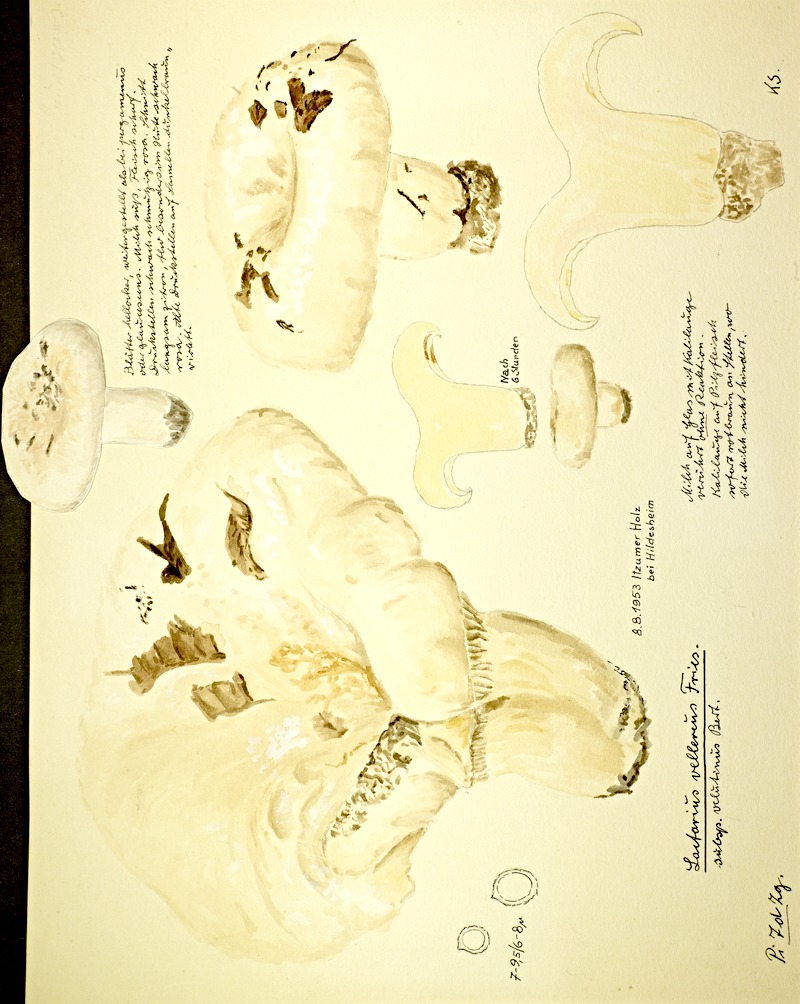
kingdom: Fungi
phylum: Basidiomycota
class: Agaricomycetes
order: Russulales
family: Russulaceae
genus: Lactifluus
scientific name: Lactifluus vellereus
